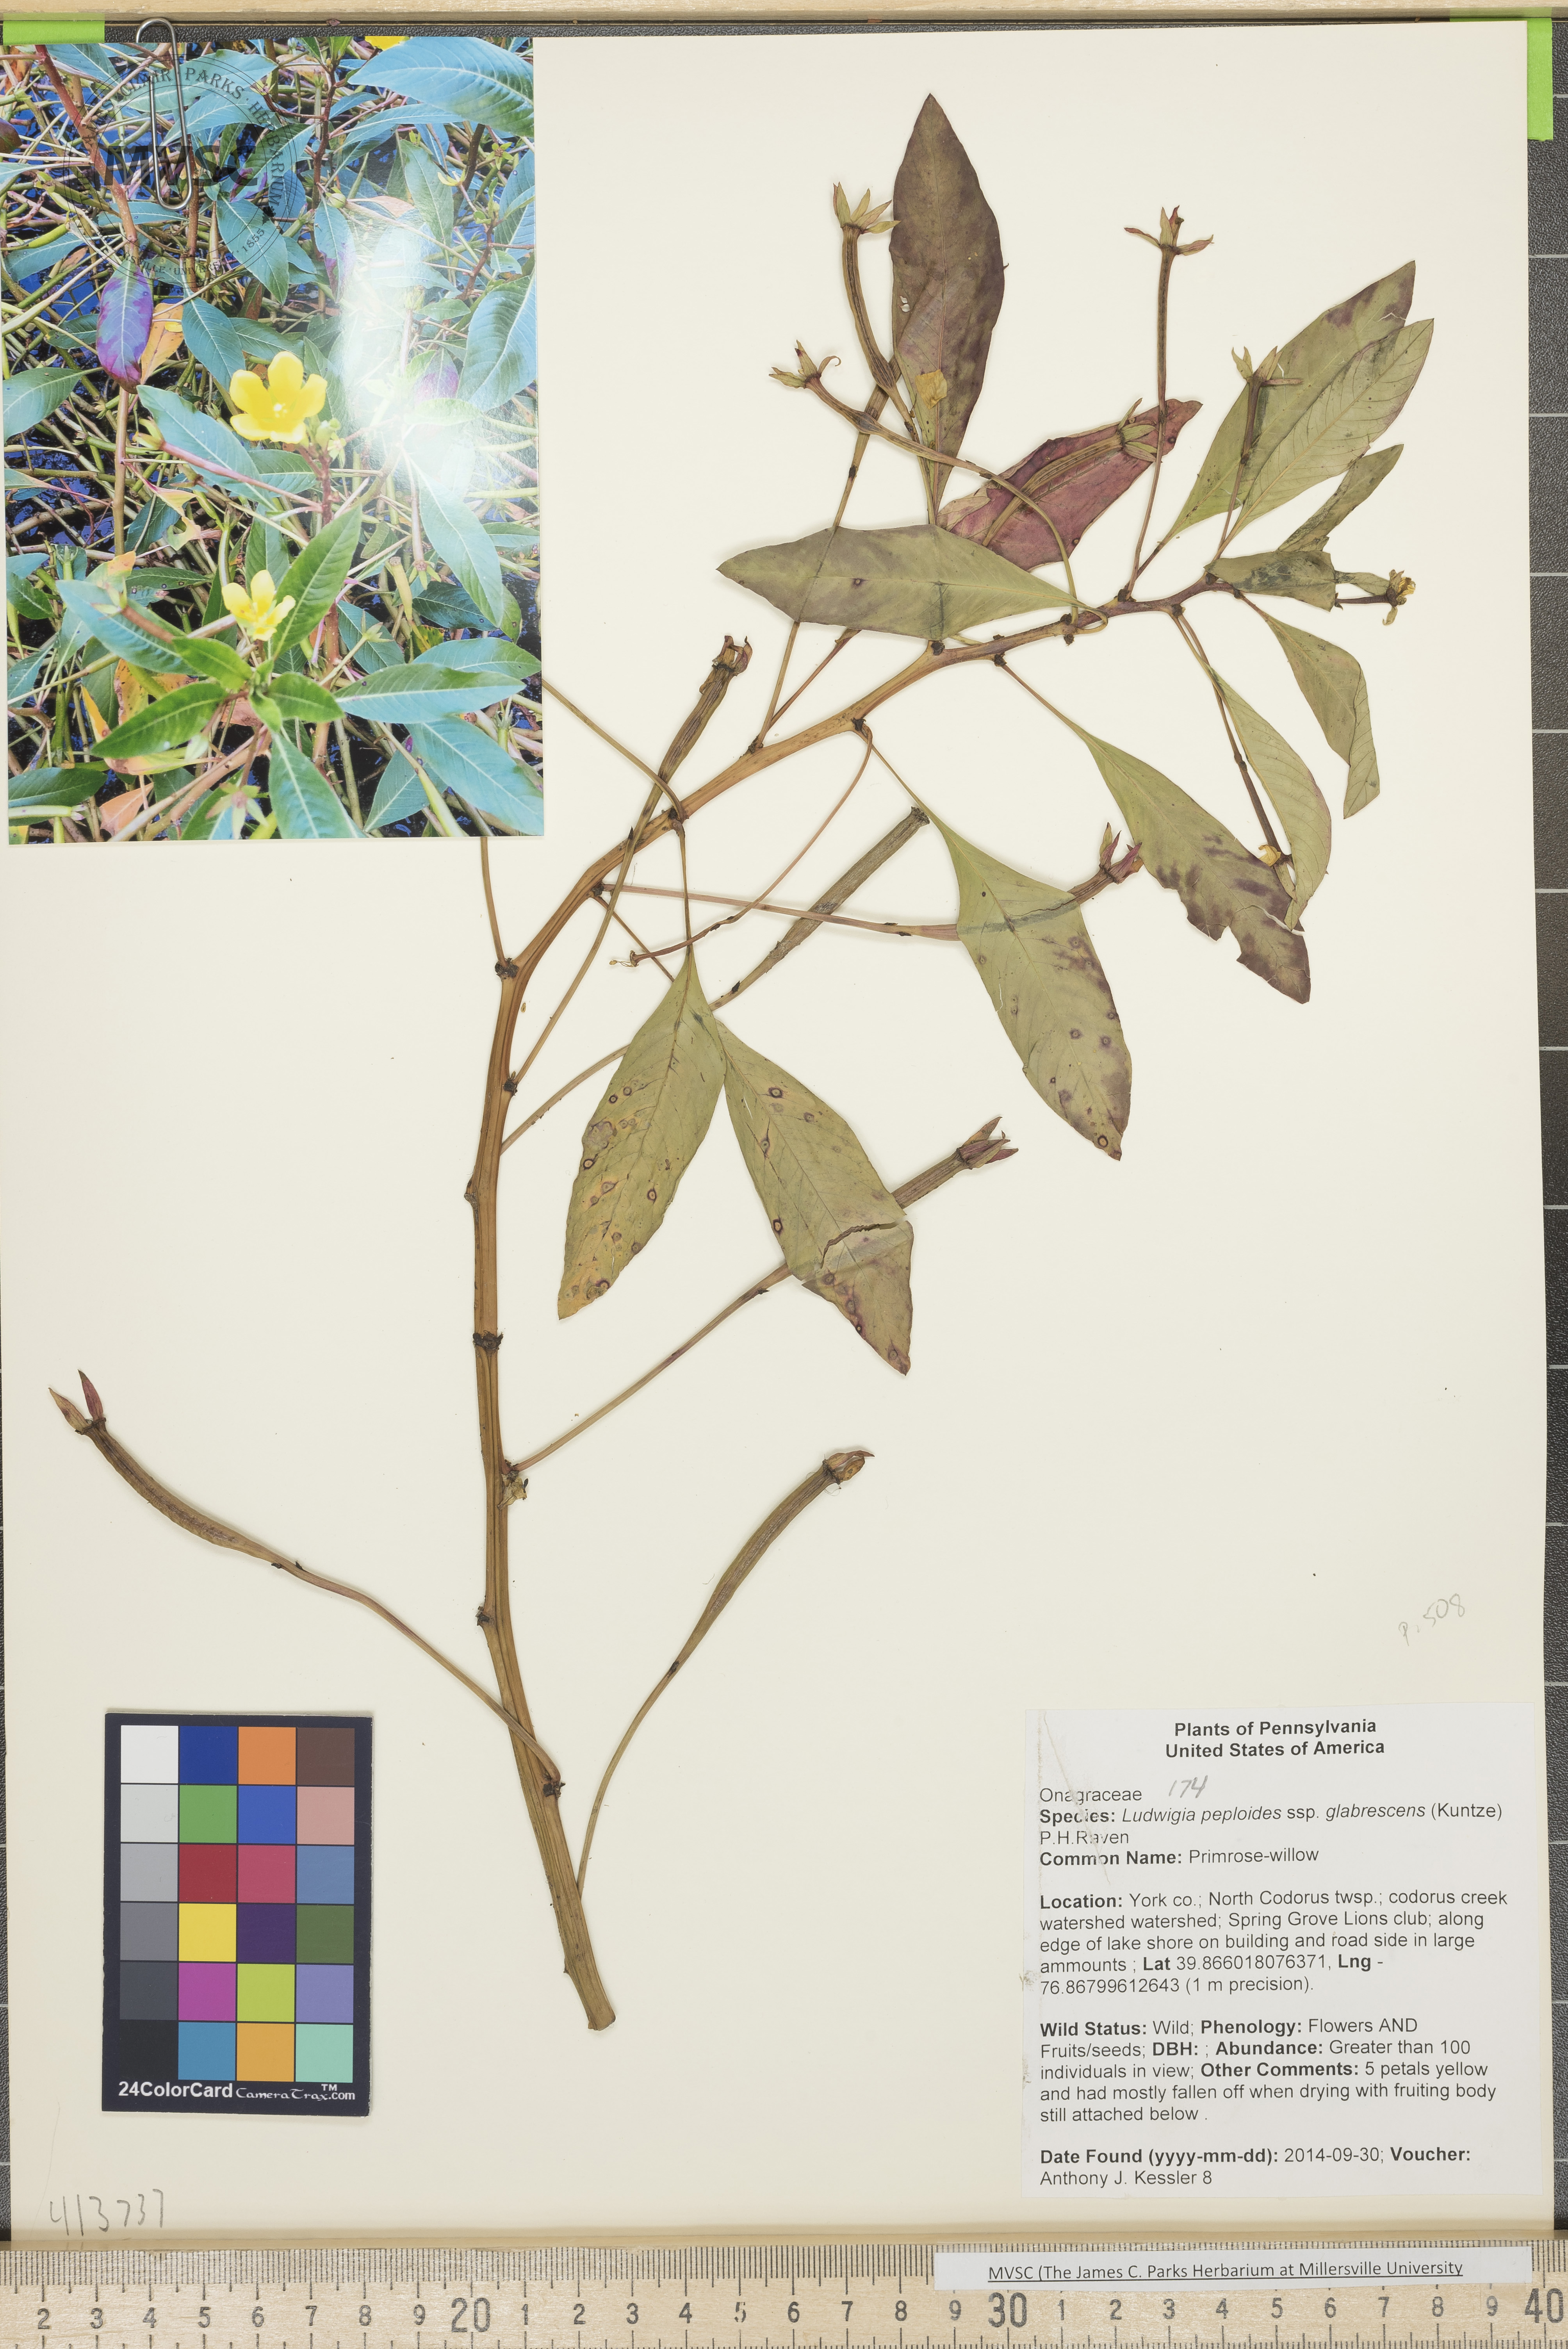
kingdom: Plantae
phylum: Tracheophyta
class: Magnoliopsida
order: Myrtales
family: Onagraceae
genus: Ludwigia
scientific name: Ludwigia peploides
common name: Primrose-willow
